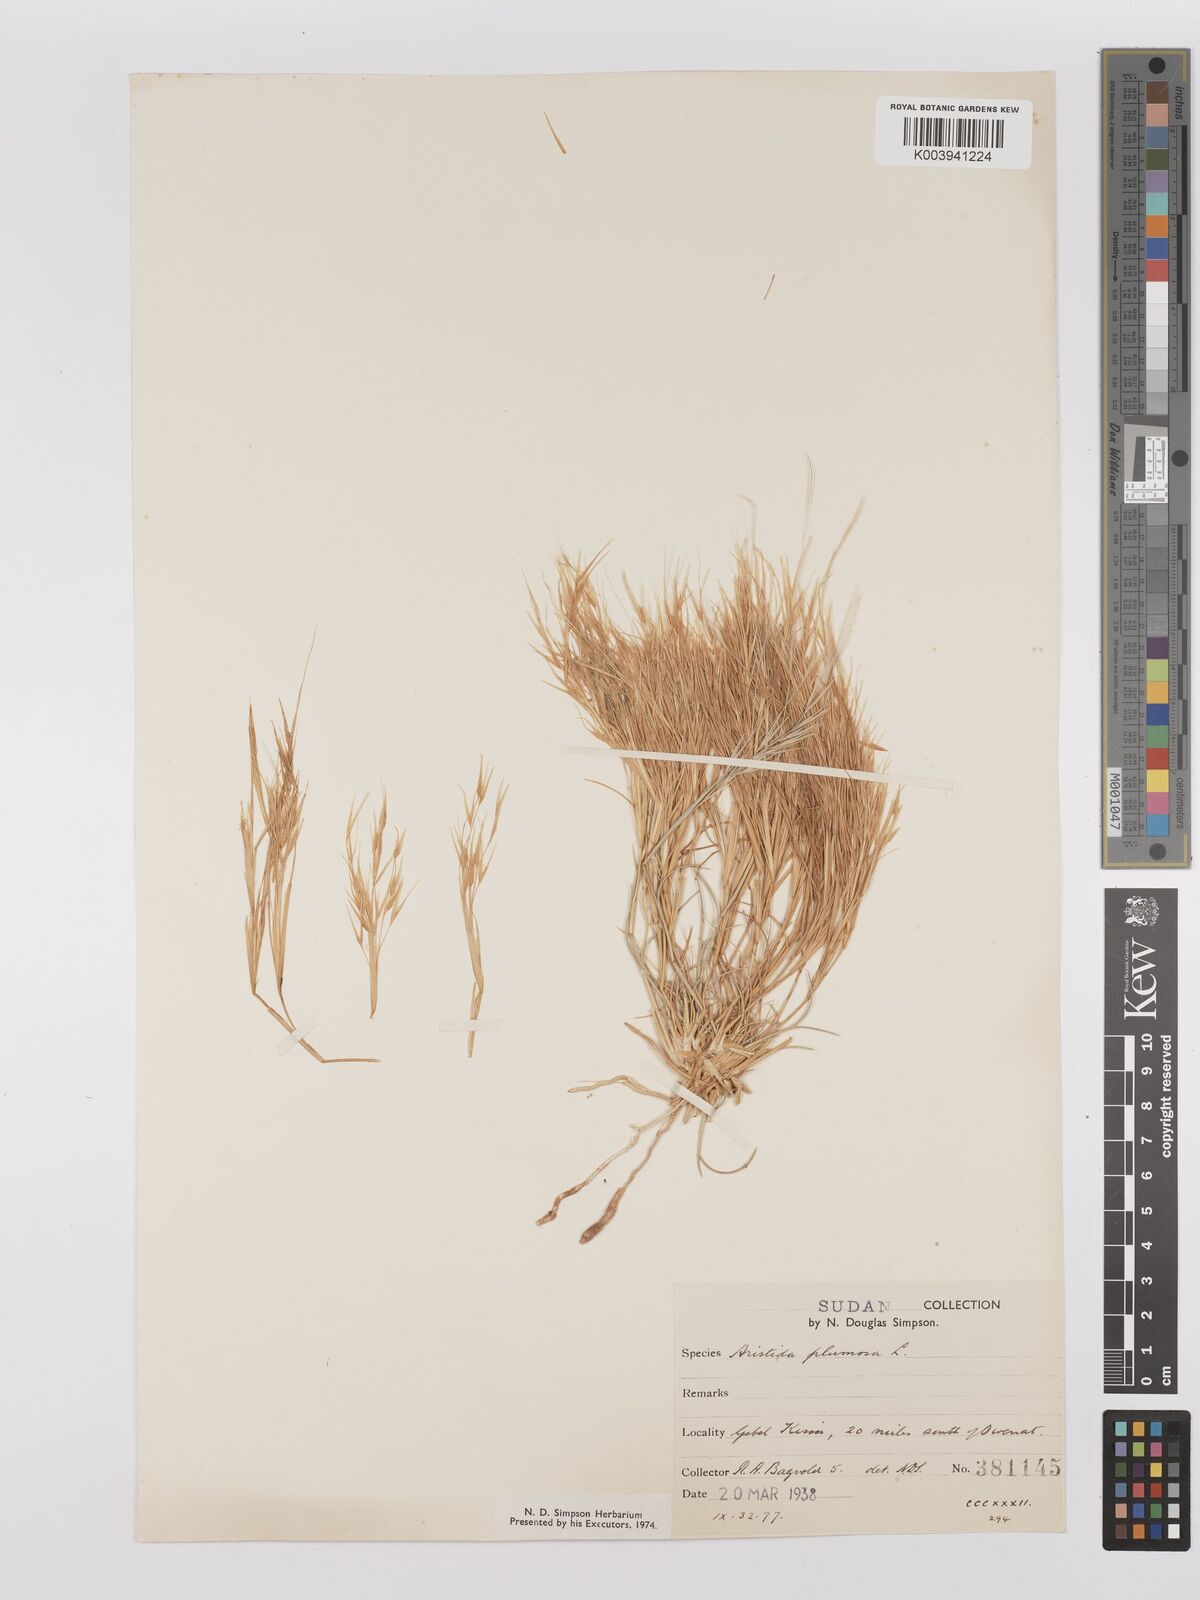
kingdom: Plantae
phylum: Tracheophyta
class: Liliopsida
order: Poales
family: Poaceae
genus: Stipagrostis
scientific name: Stipagrostis plumosa
